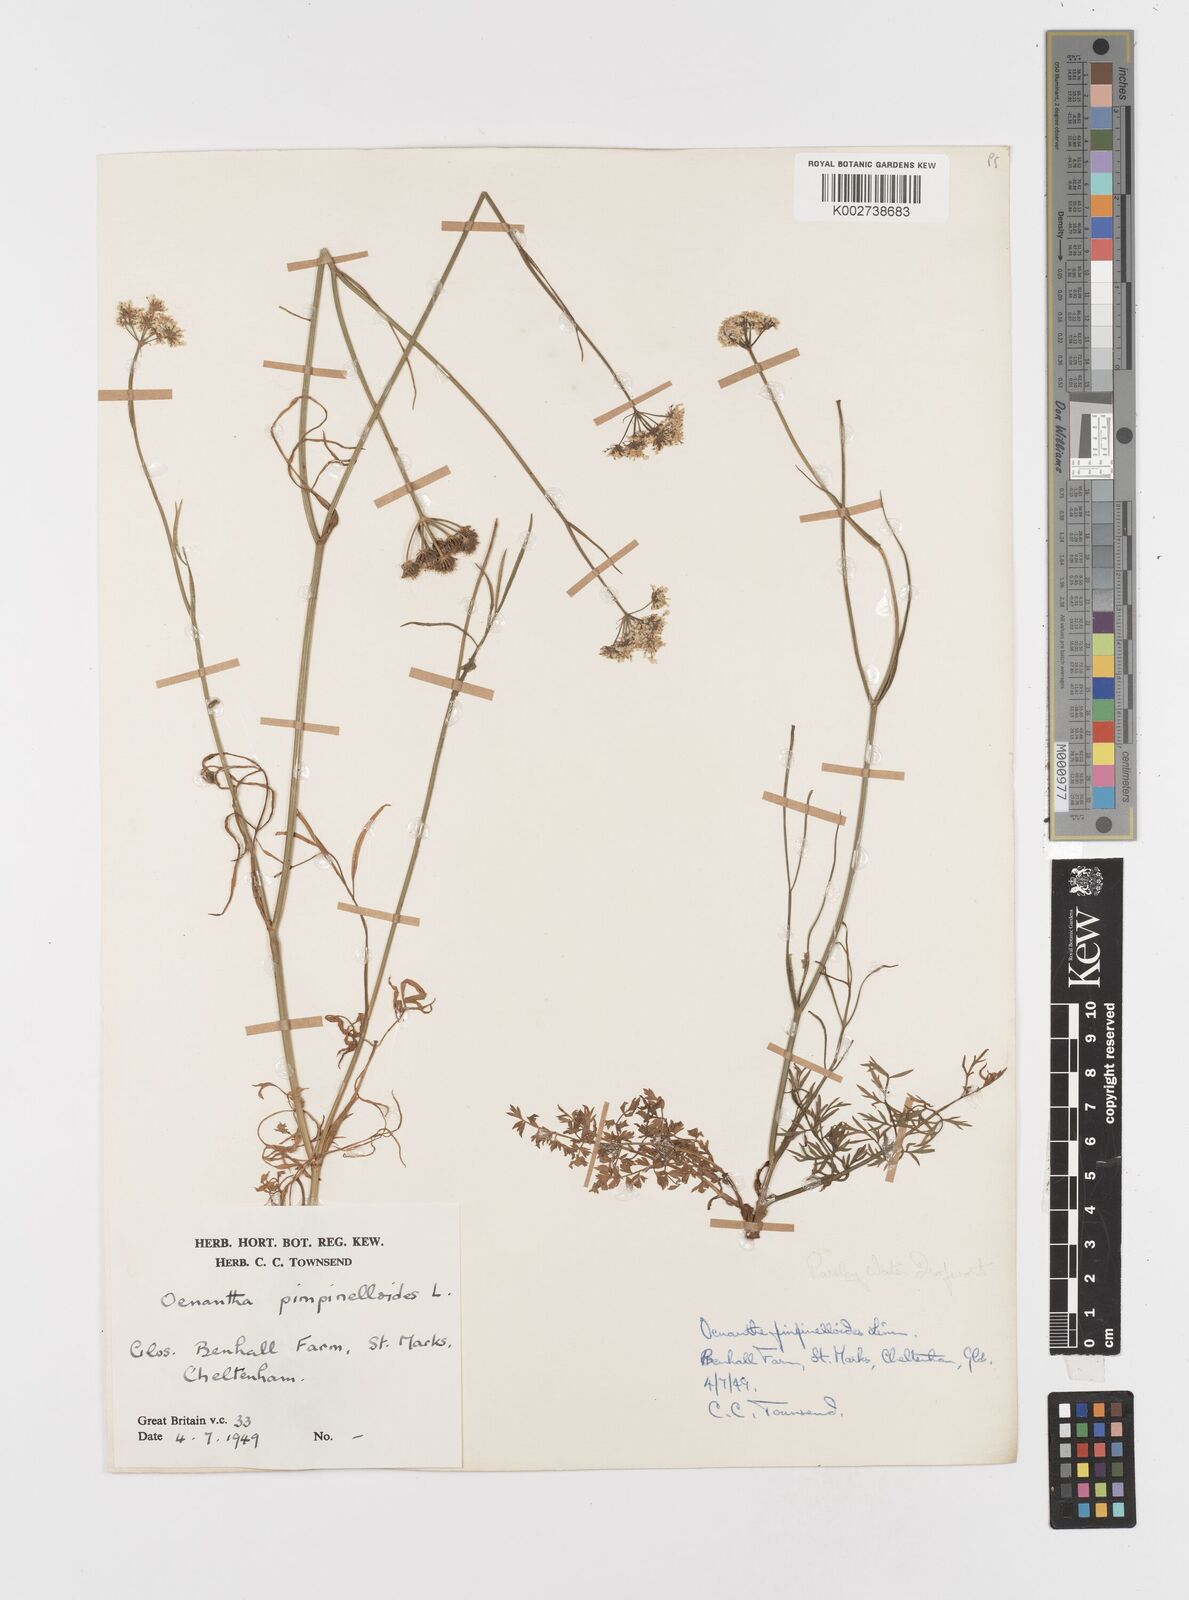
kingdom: Plantae
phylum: Tracheophyta
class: Magnoliopsida
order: Apiales
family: Apiaceae
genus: Oenanthe
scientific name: Oenanthe pimpinelloides
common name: Corky-fruited water-dropwort
